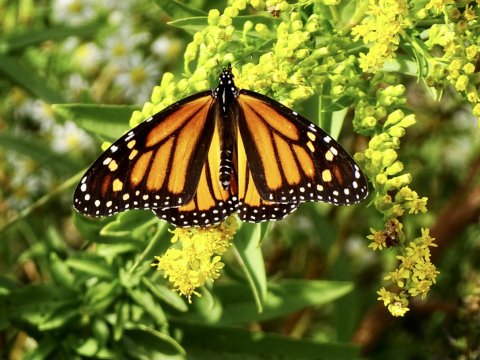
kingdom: Animalia
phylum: Arthropoda
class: Insecta
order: Lepidoptera
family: Nymphalidae
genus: Danaus
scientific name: Danaus plexippus
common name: Monarch
